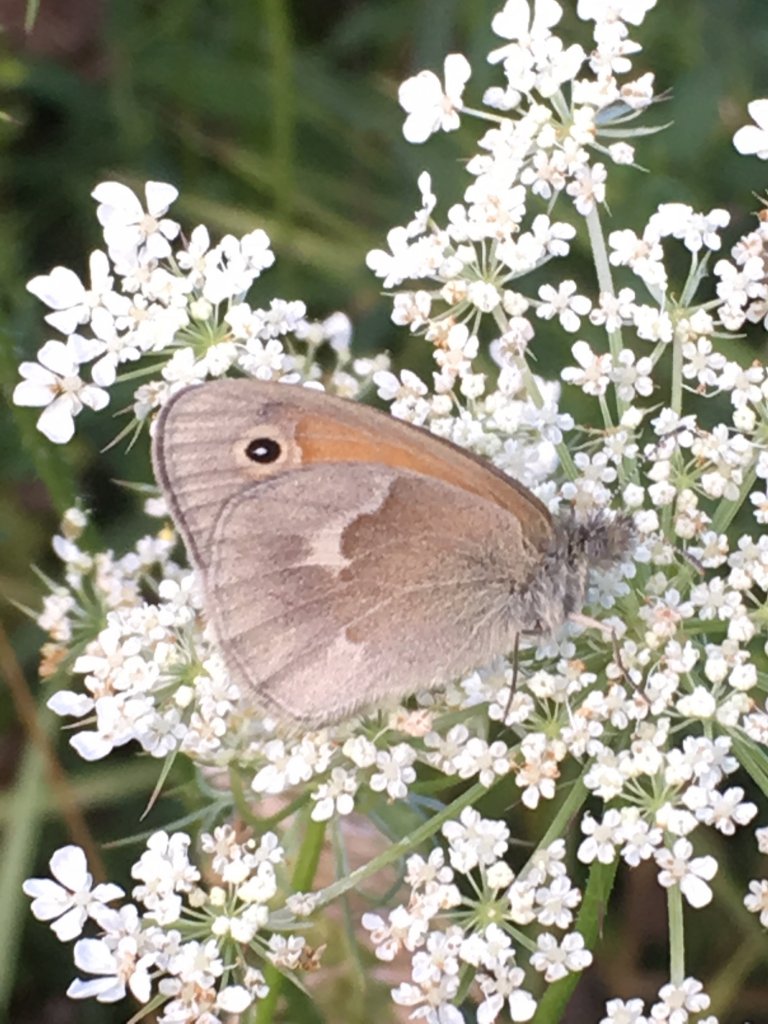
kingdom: Animalia
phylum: Arthropoda
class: Insecta
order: Lepidoptera
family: Nymphalidae
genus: Coenonympha
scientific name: Coenonympha tullia
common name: Large Heath
